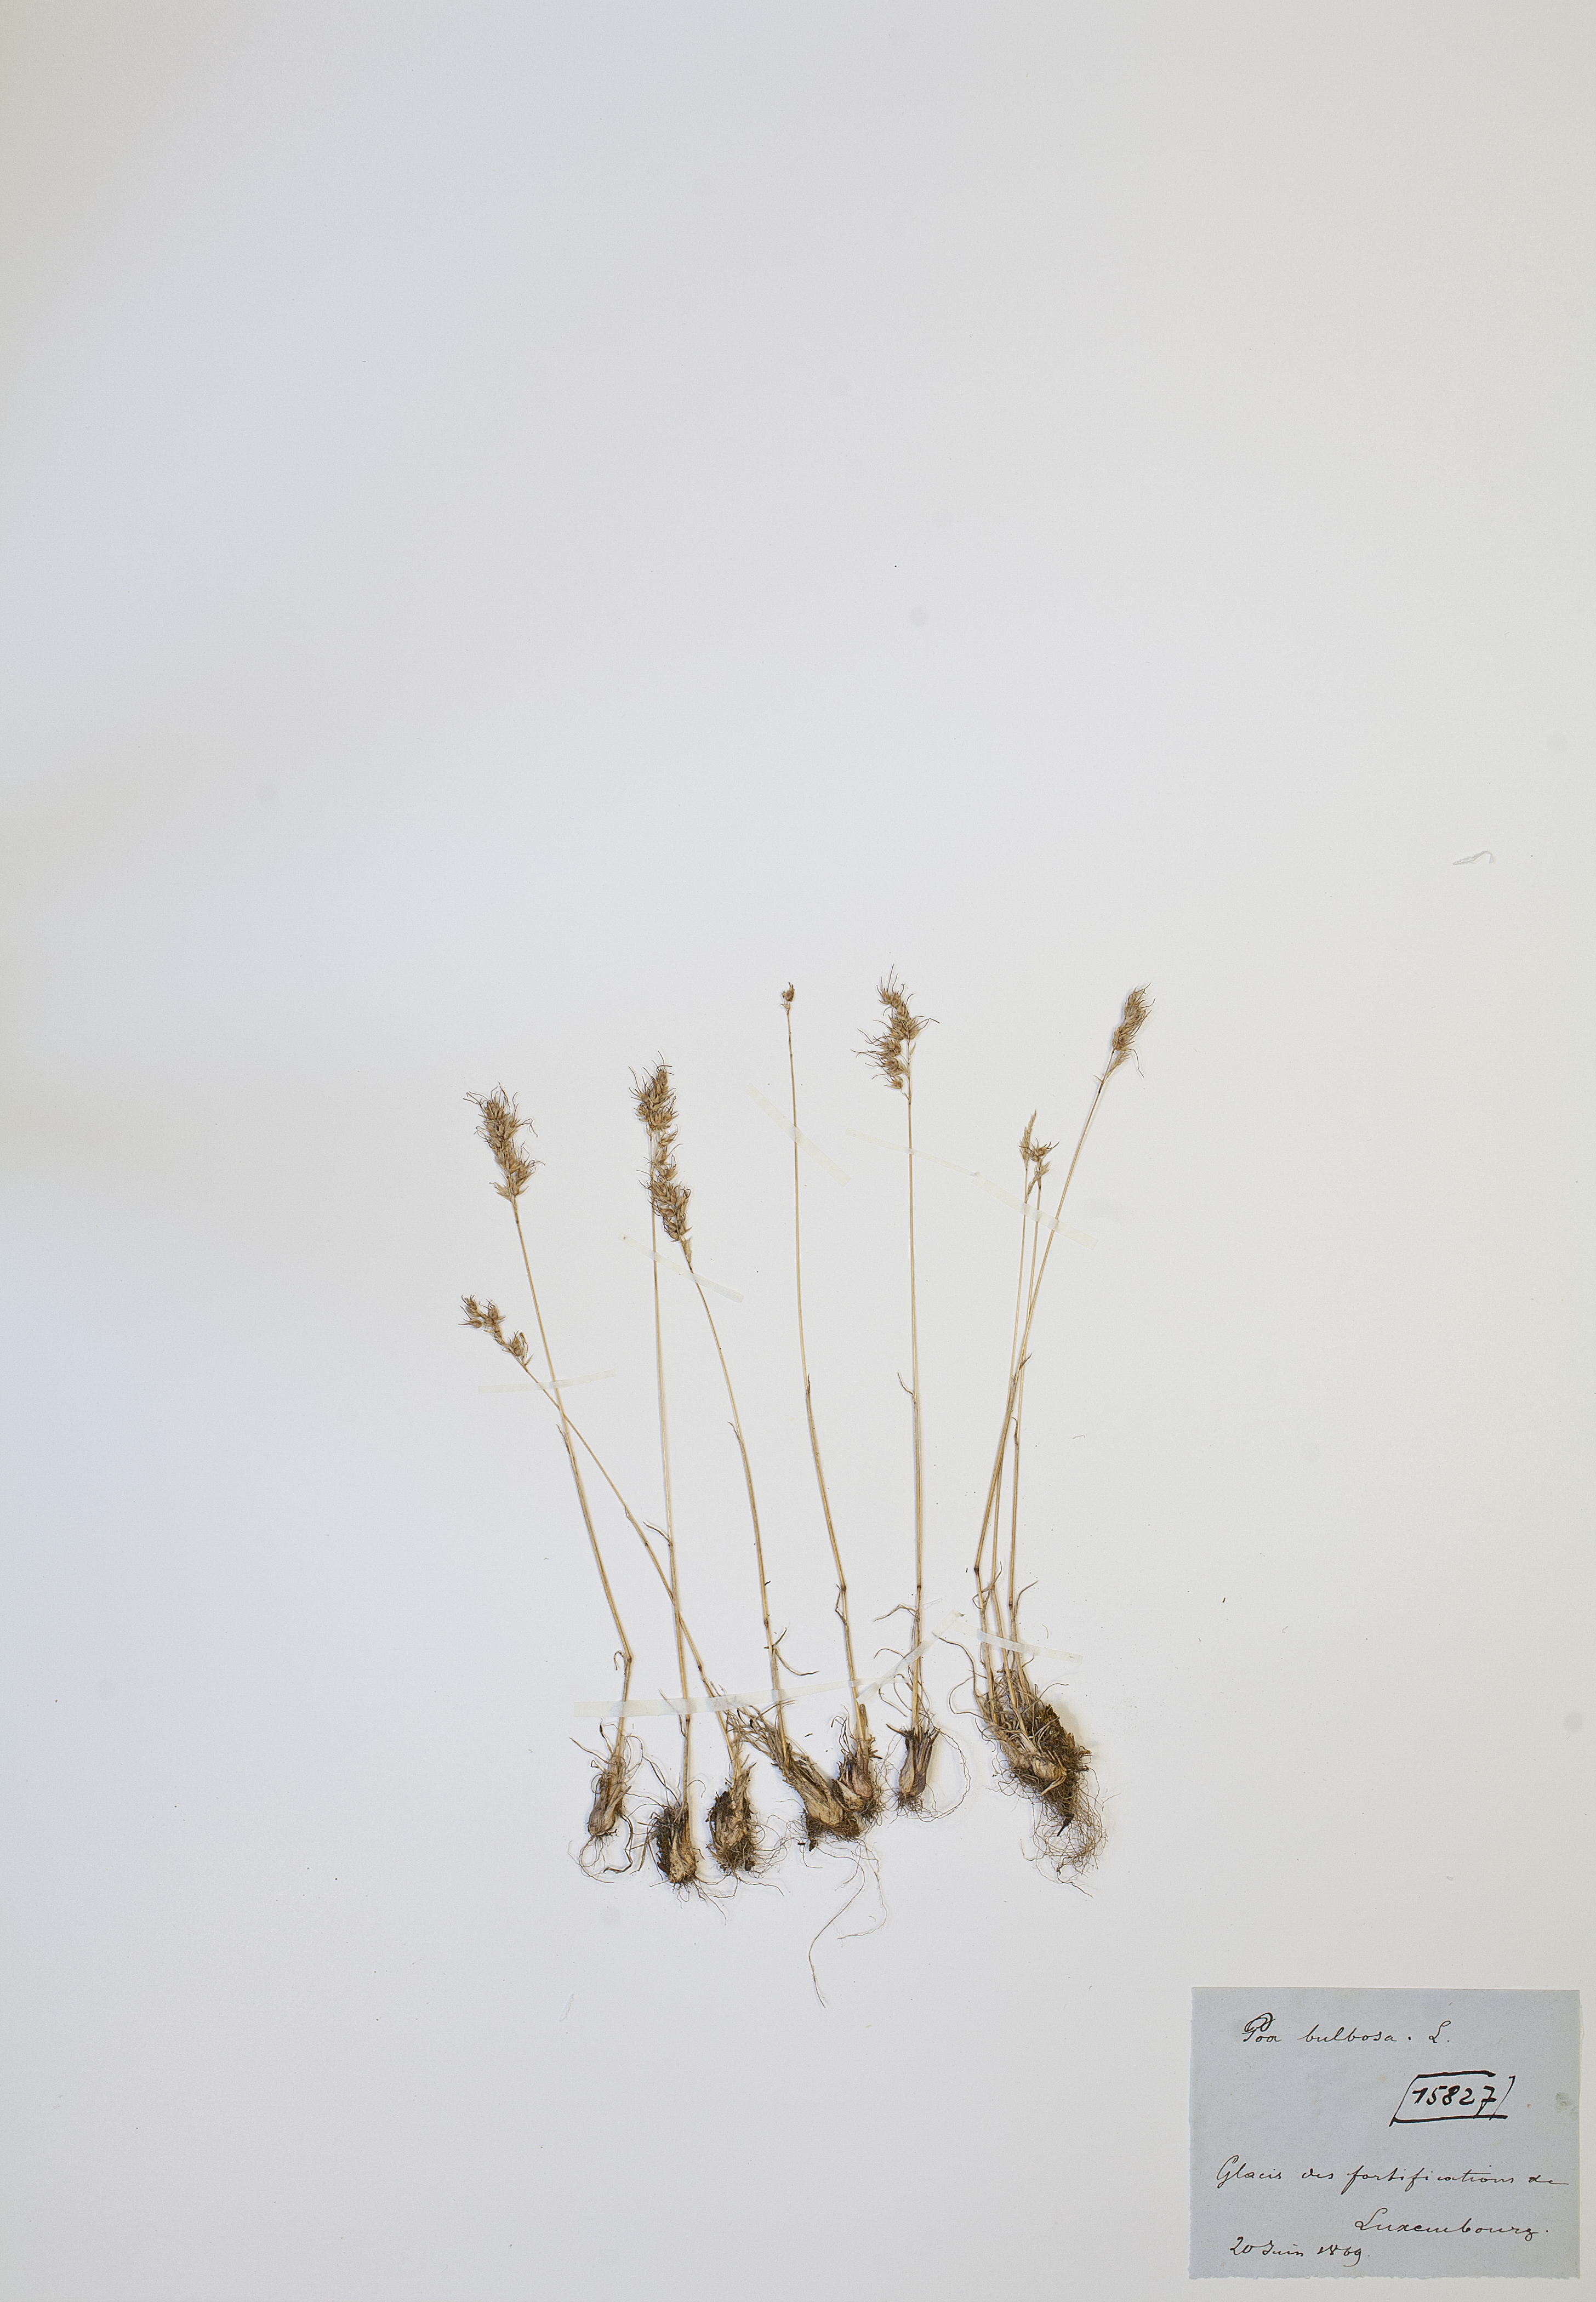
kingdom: Plantae
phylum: Tracheophyta
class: Liliopsida
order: Poales
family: Poaceae
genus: Poa
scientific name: Poa bulbosa
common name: Bulbous bluegrass
